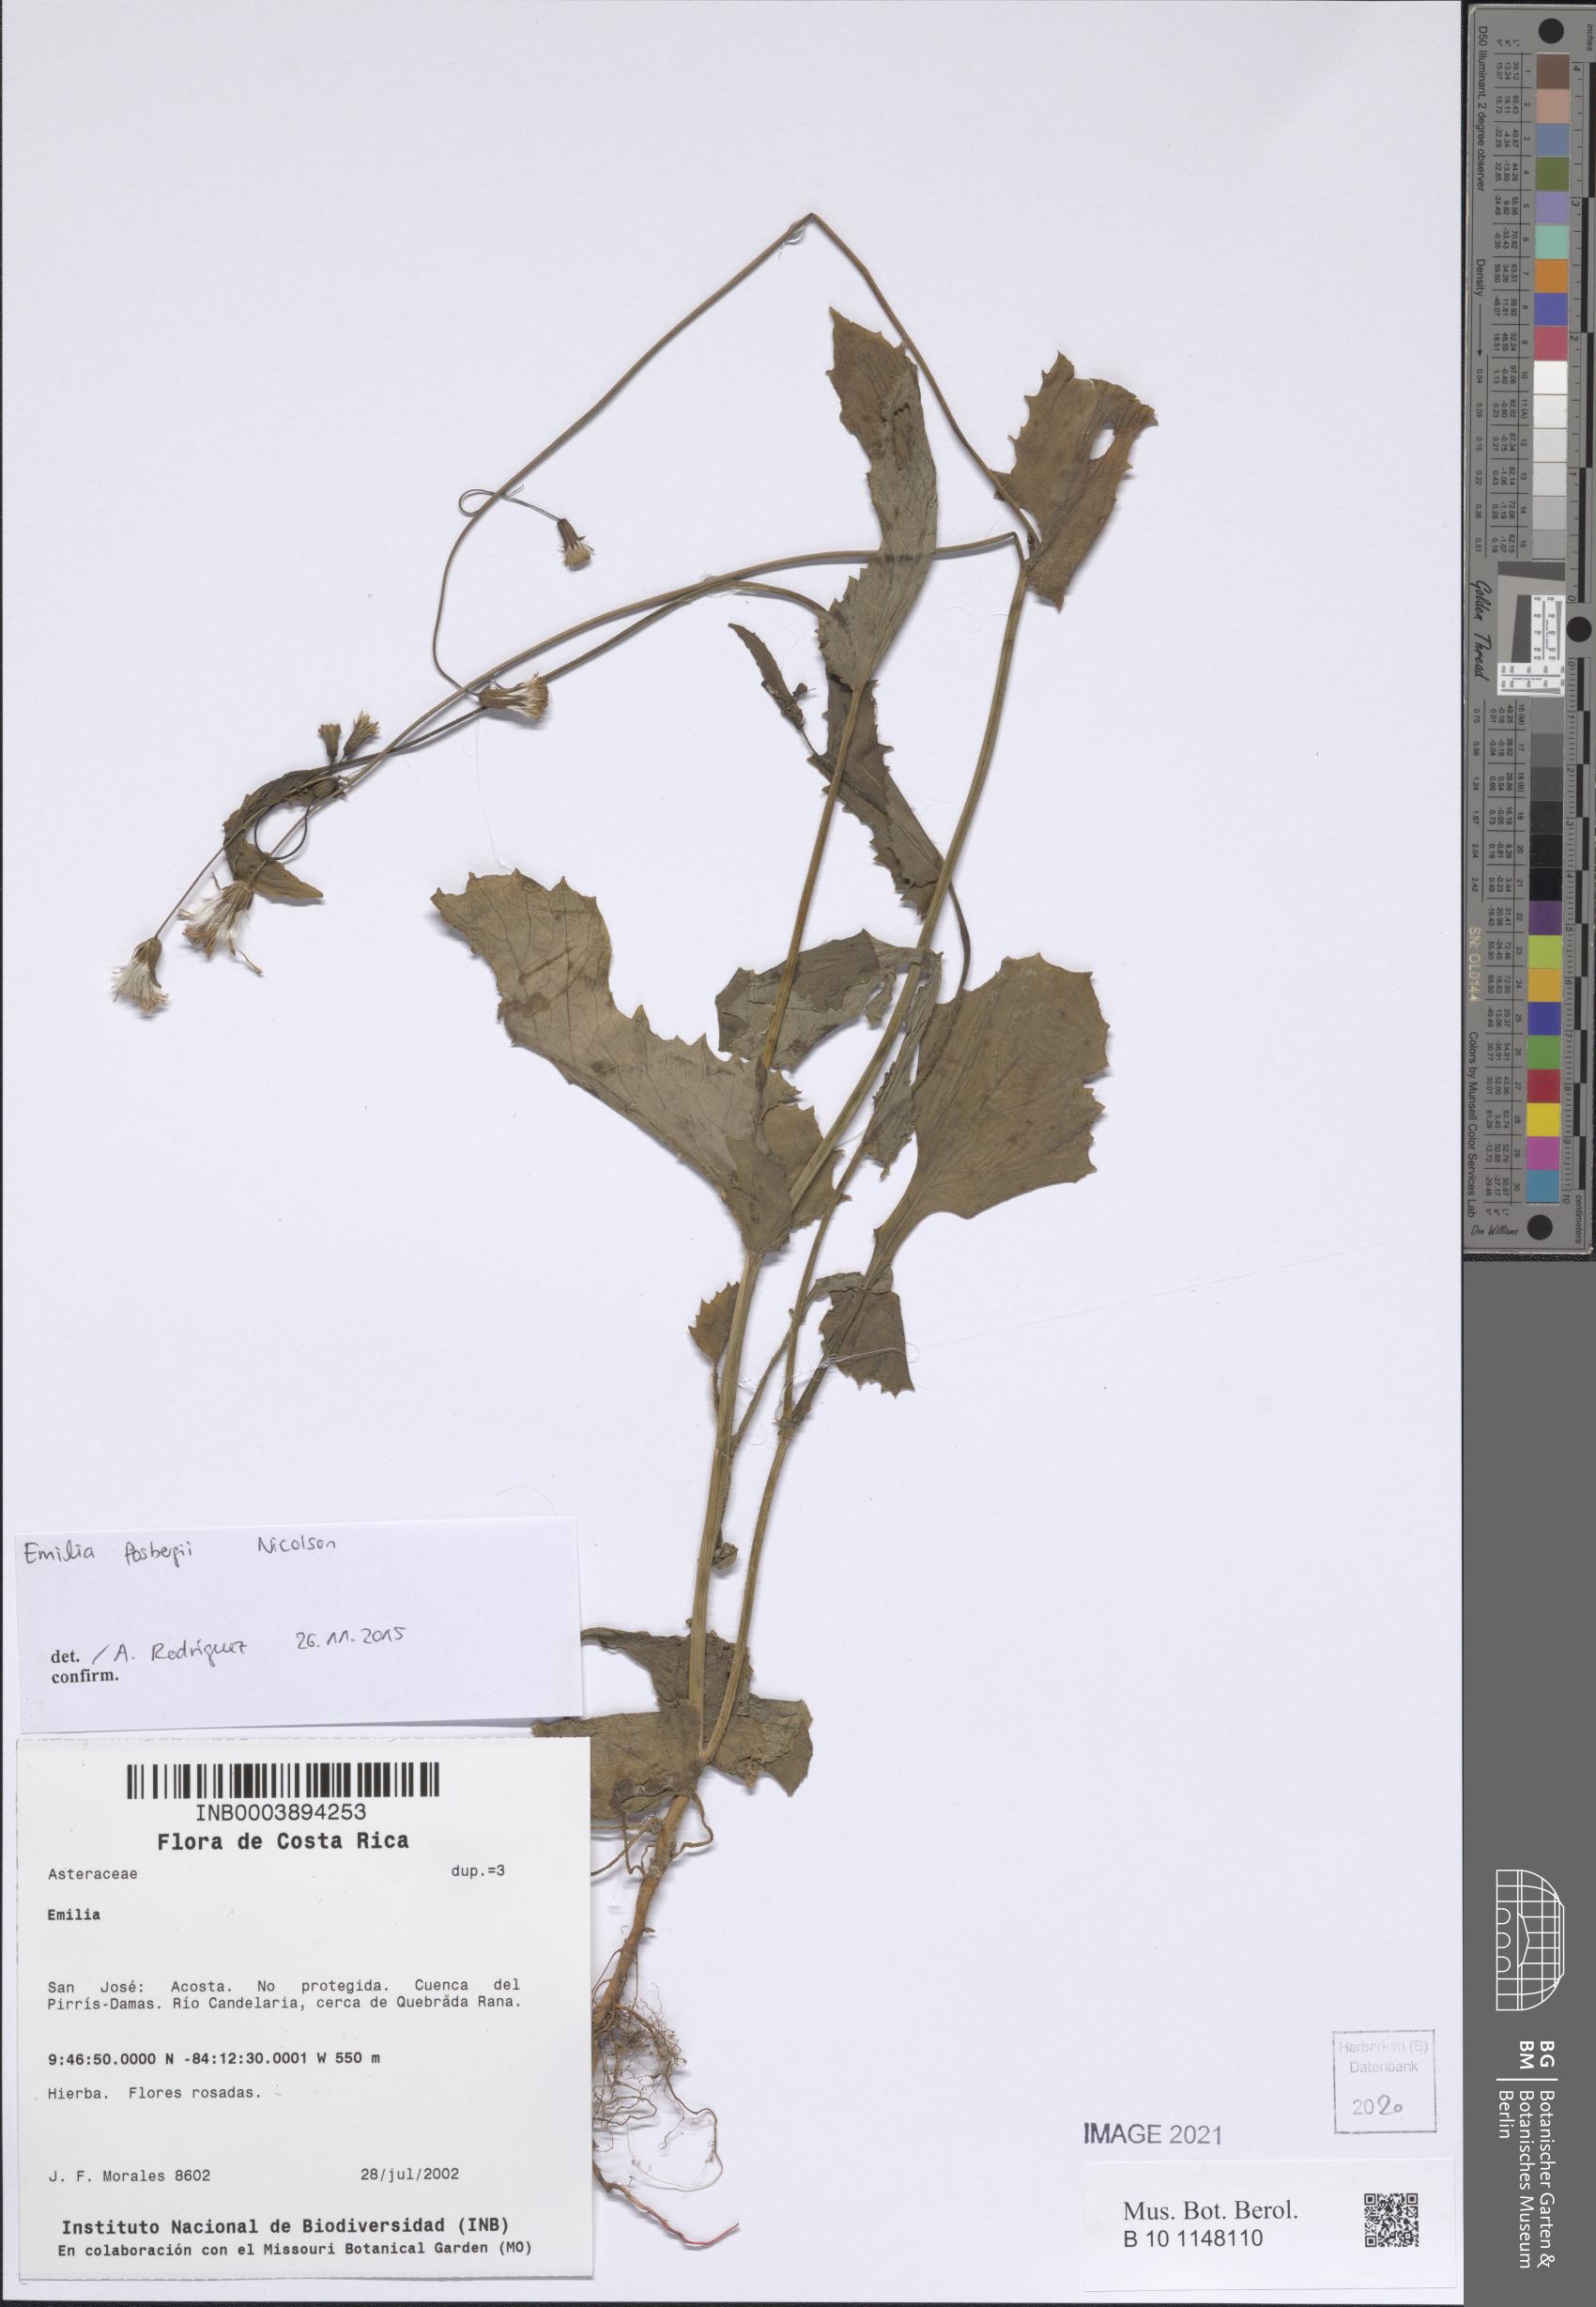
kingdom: Plantae
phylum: Tracheophyta
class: Magnoliopsida
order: Asterales
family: Asteraceae
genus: Emilia
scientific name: Emilia fosbergii
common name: Florida tasselflower
